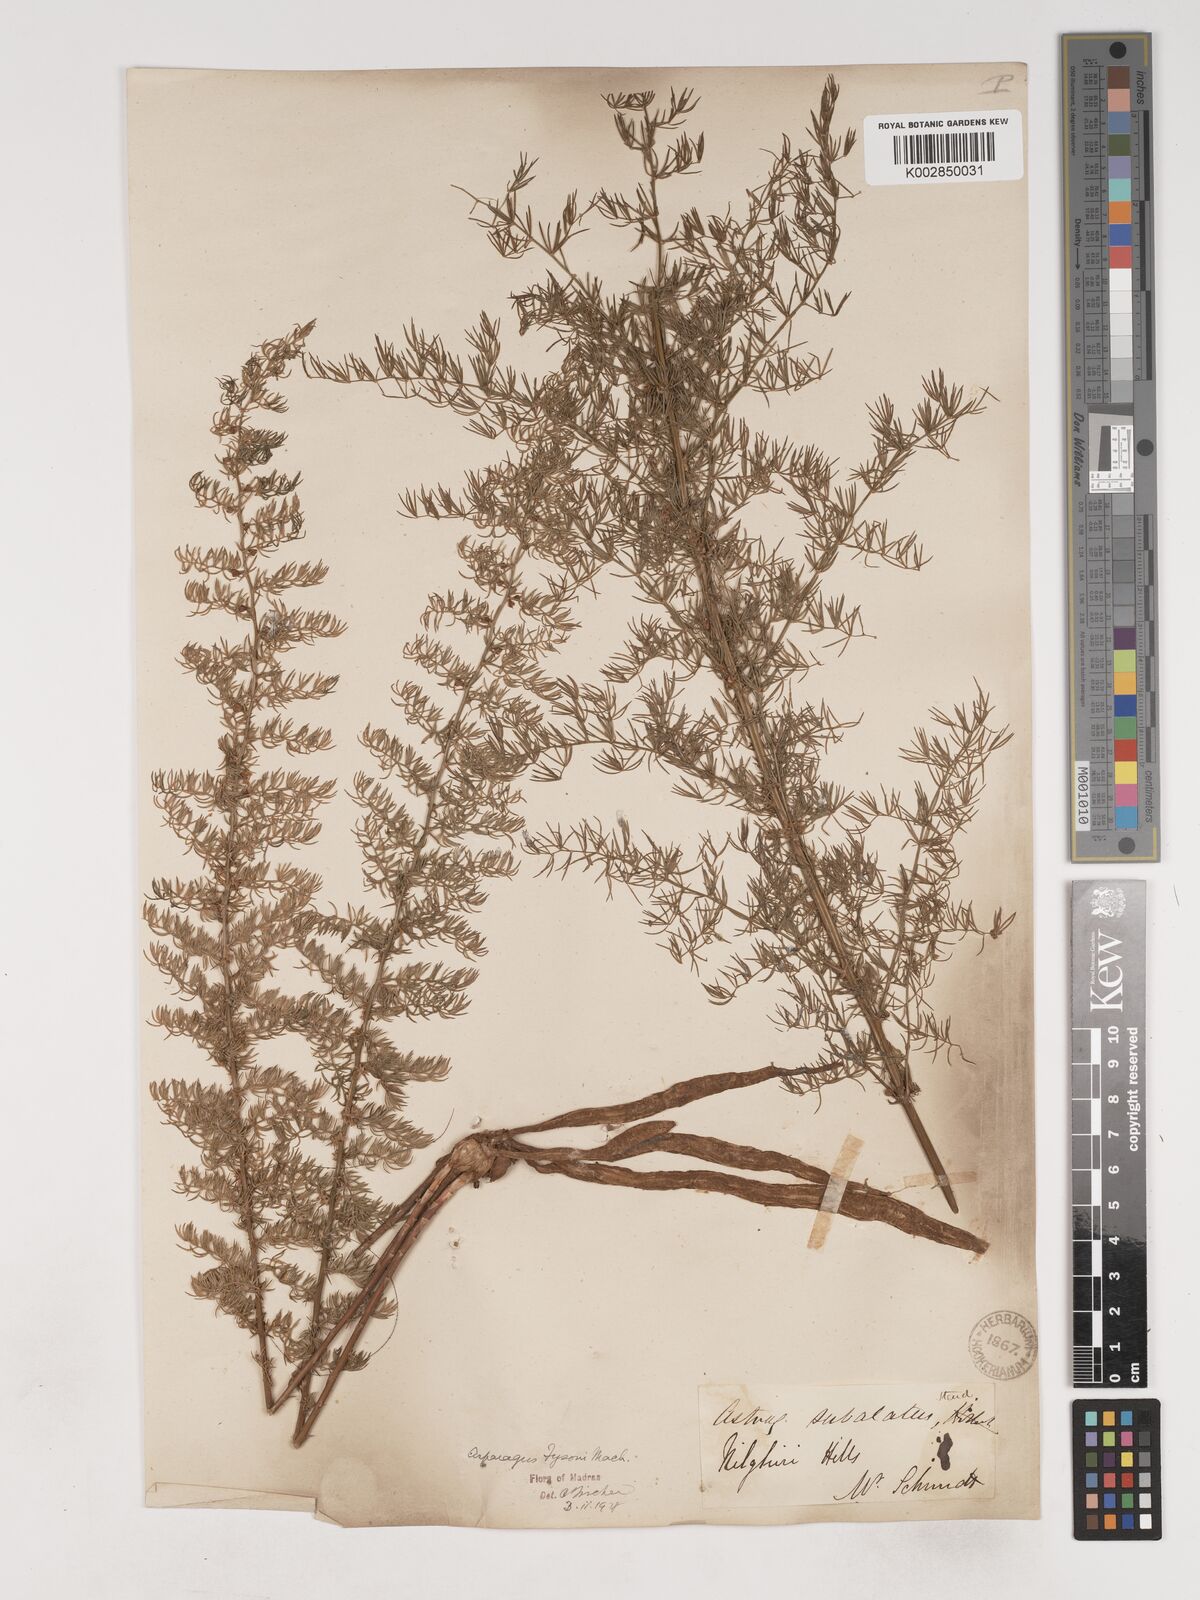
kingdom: Plantae
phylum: Tracheophyta
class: Liliopsida
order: Asparagales
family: Asparagaceae
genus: Asparagus
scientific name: Asparagus fysonii
